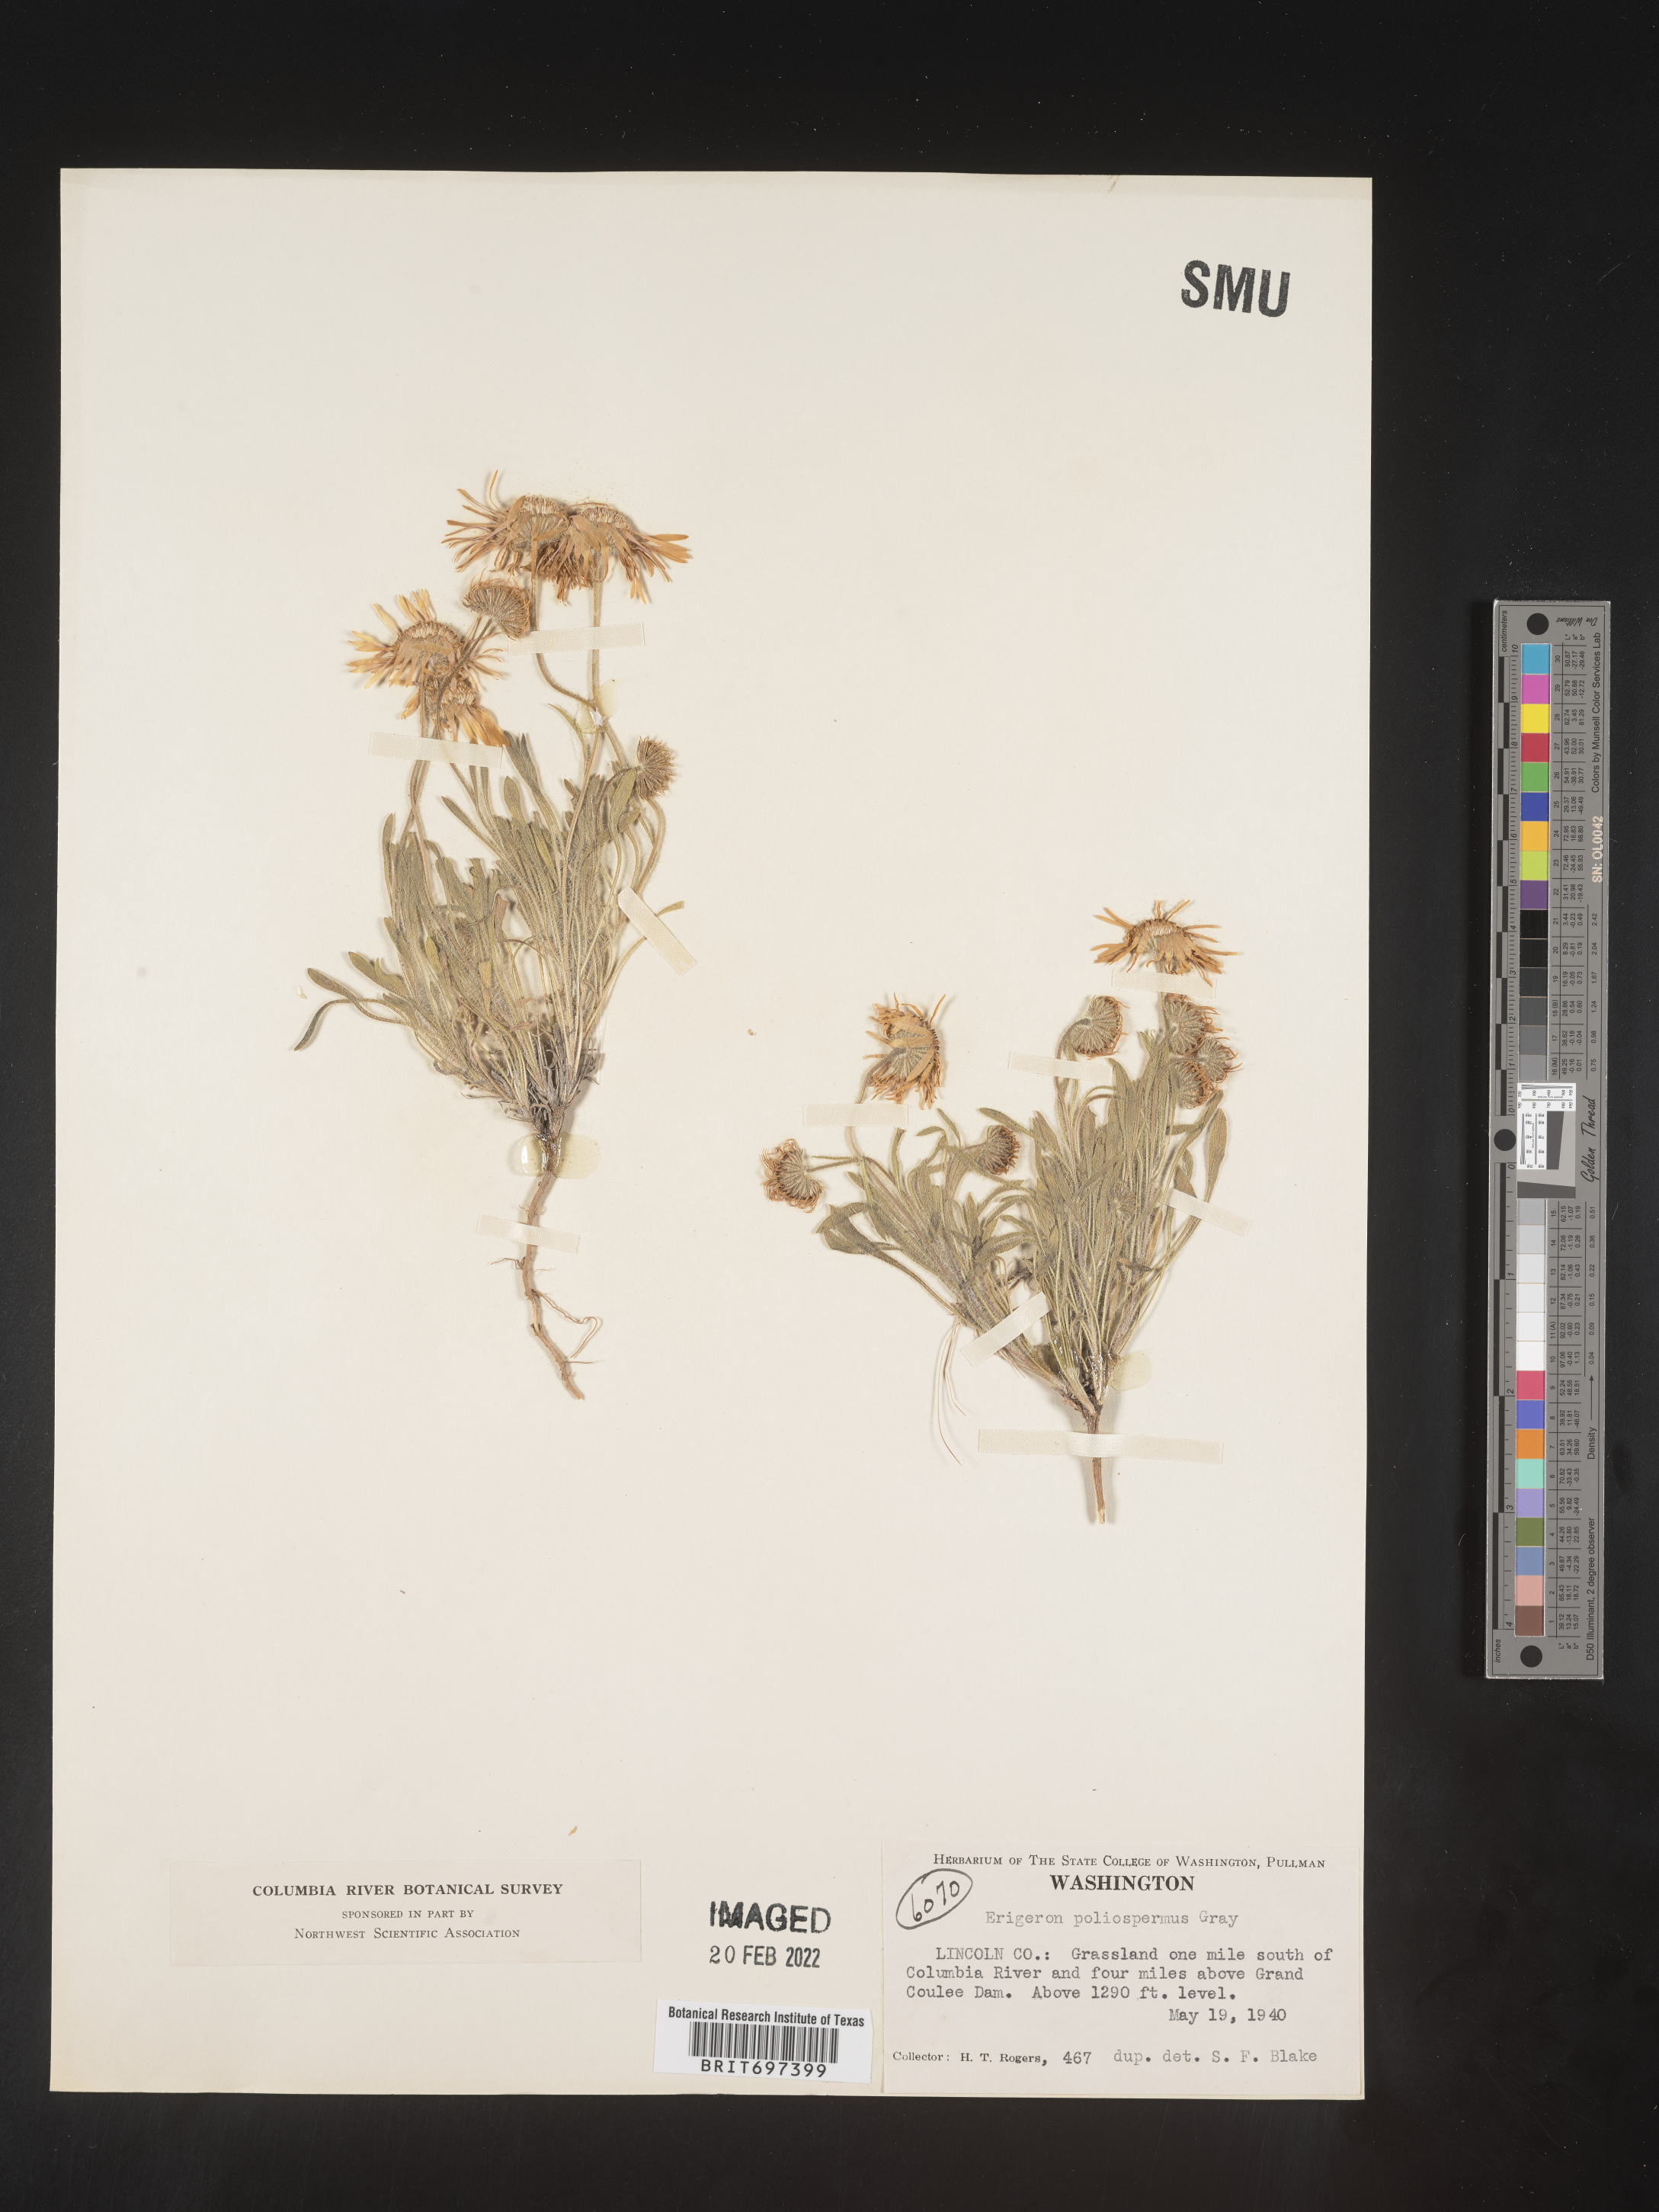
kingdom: Plantae
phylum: Tracheophyta
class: Magnoliopsida
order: Asterales
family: Asteraceae
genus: Erigeron
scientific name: Erigeron poliospermus
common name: Cushion fleabane
